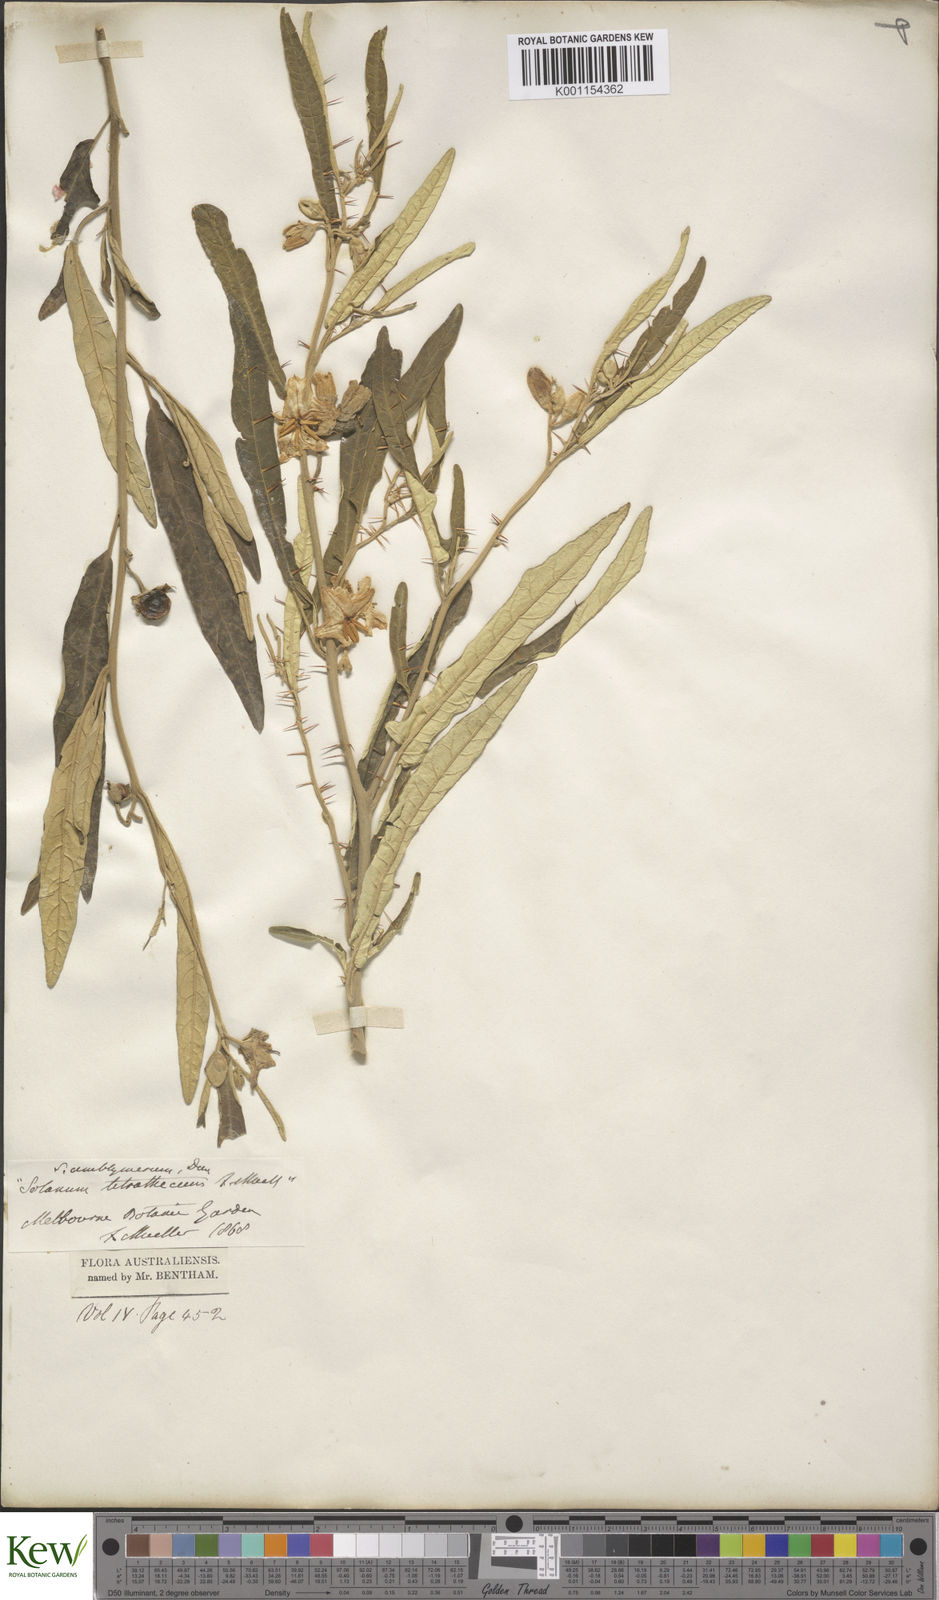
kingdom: Plantae
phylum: Tracheophyta
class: Magnoliopsida
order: Solanales
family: Solanaceae
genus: Solanum
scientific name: Solanum elegans
